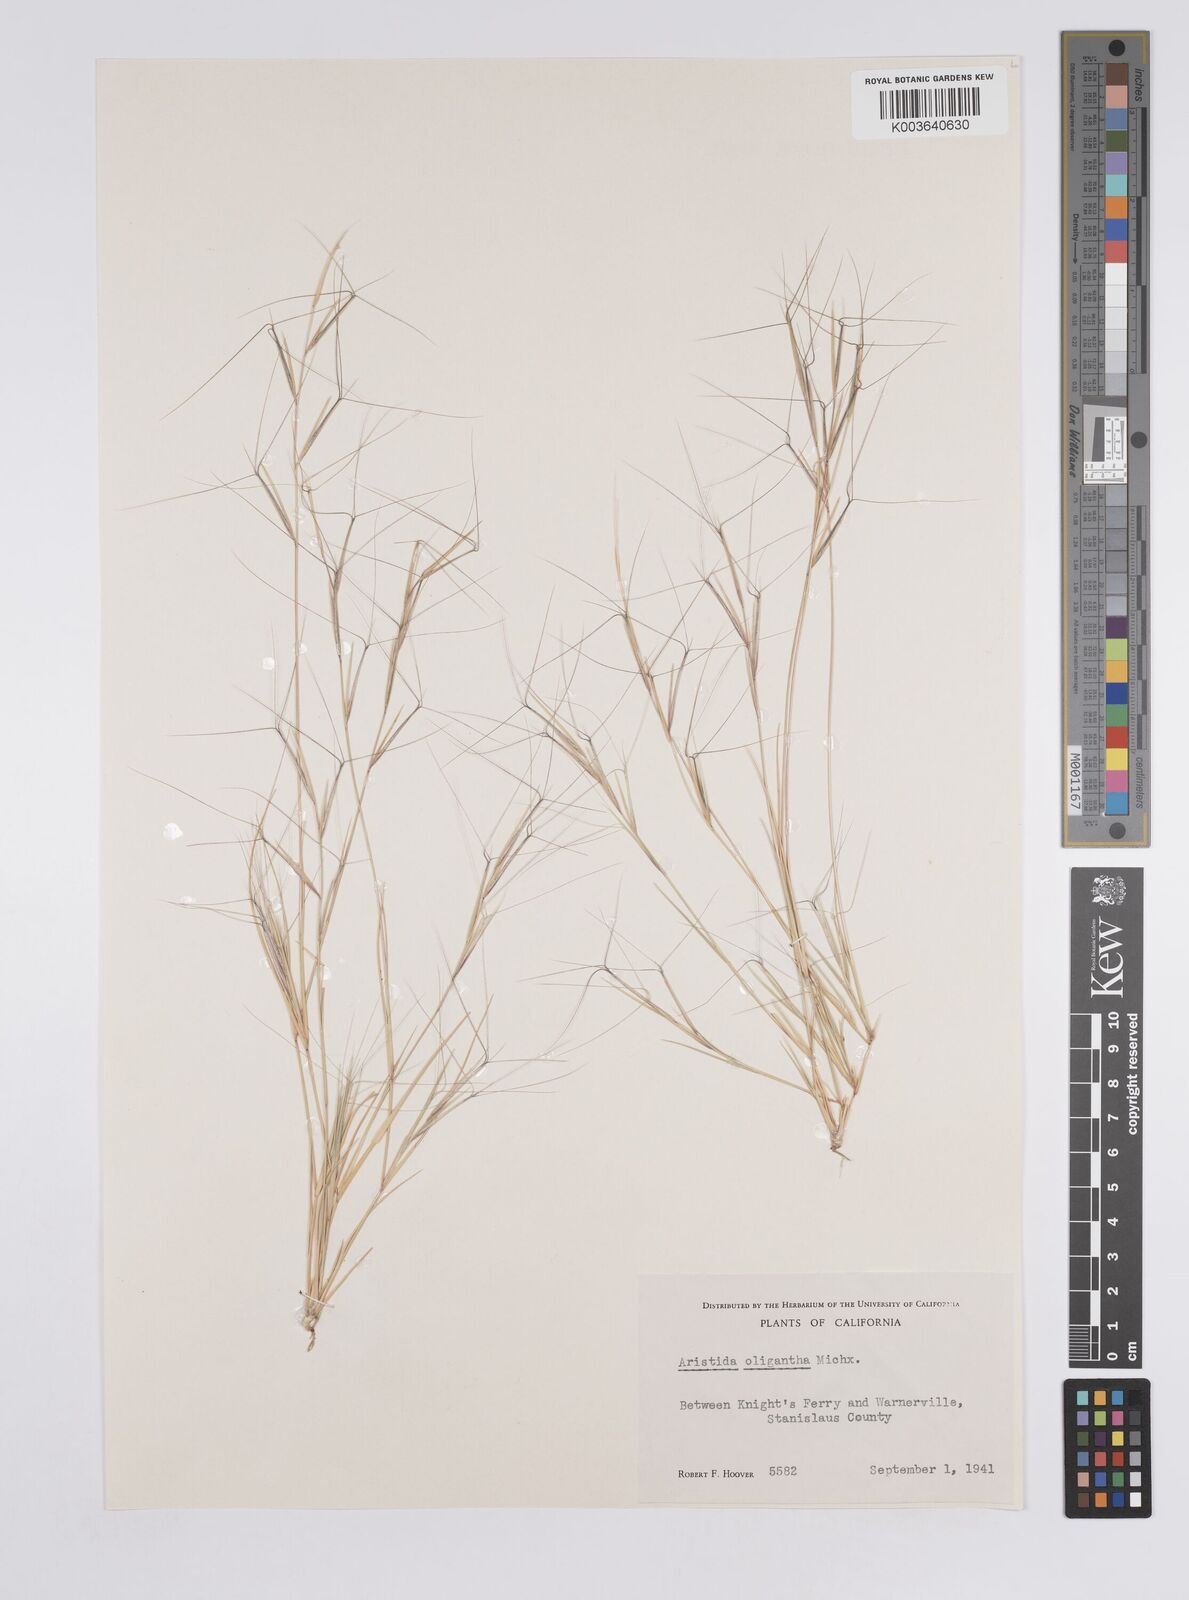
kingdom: Plantae
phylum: Tracheophyta
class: Liliopsida
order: Poales
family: Poaceae
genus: Aristida
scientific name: Aristida oligantha
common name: Few-flowered aristida
